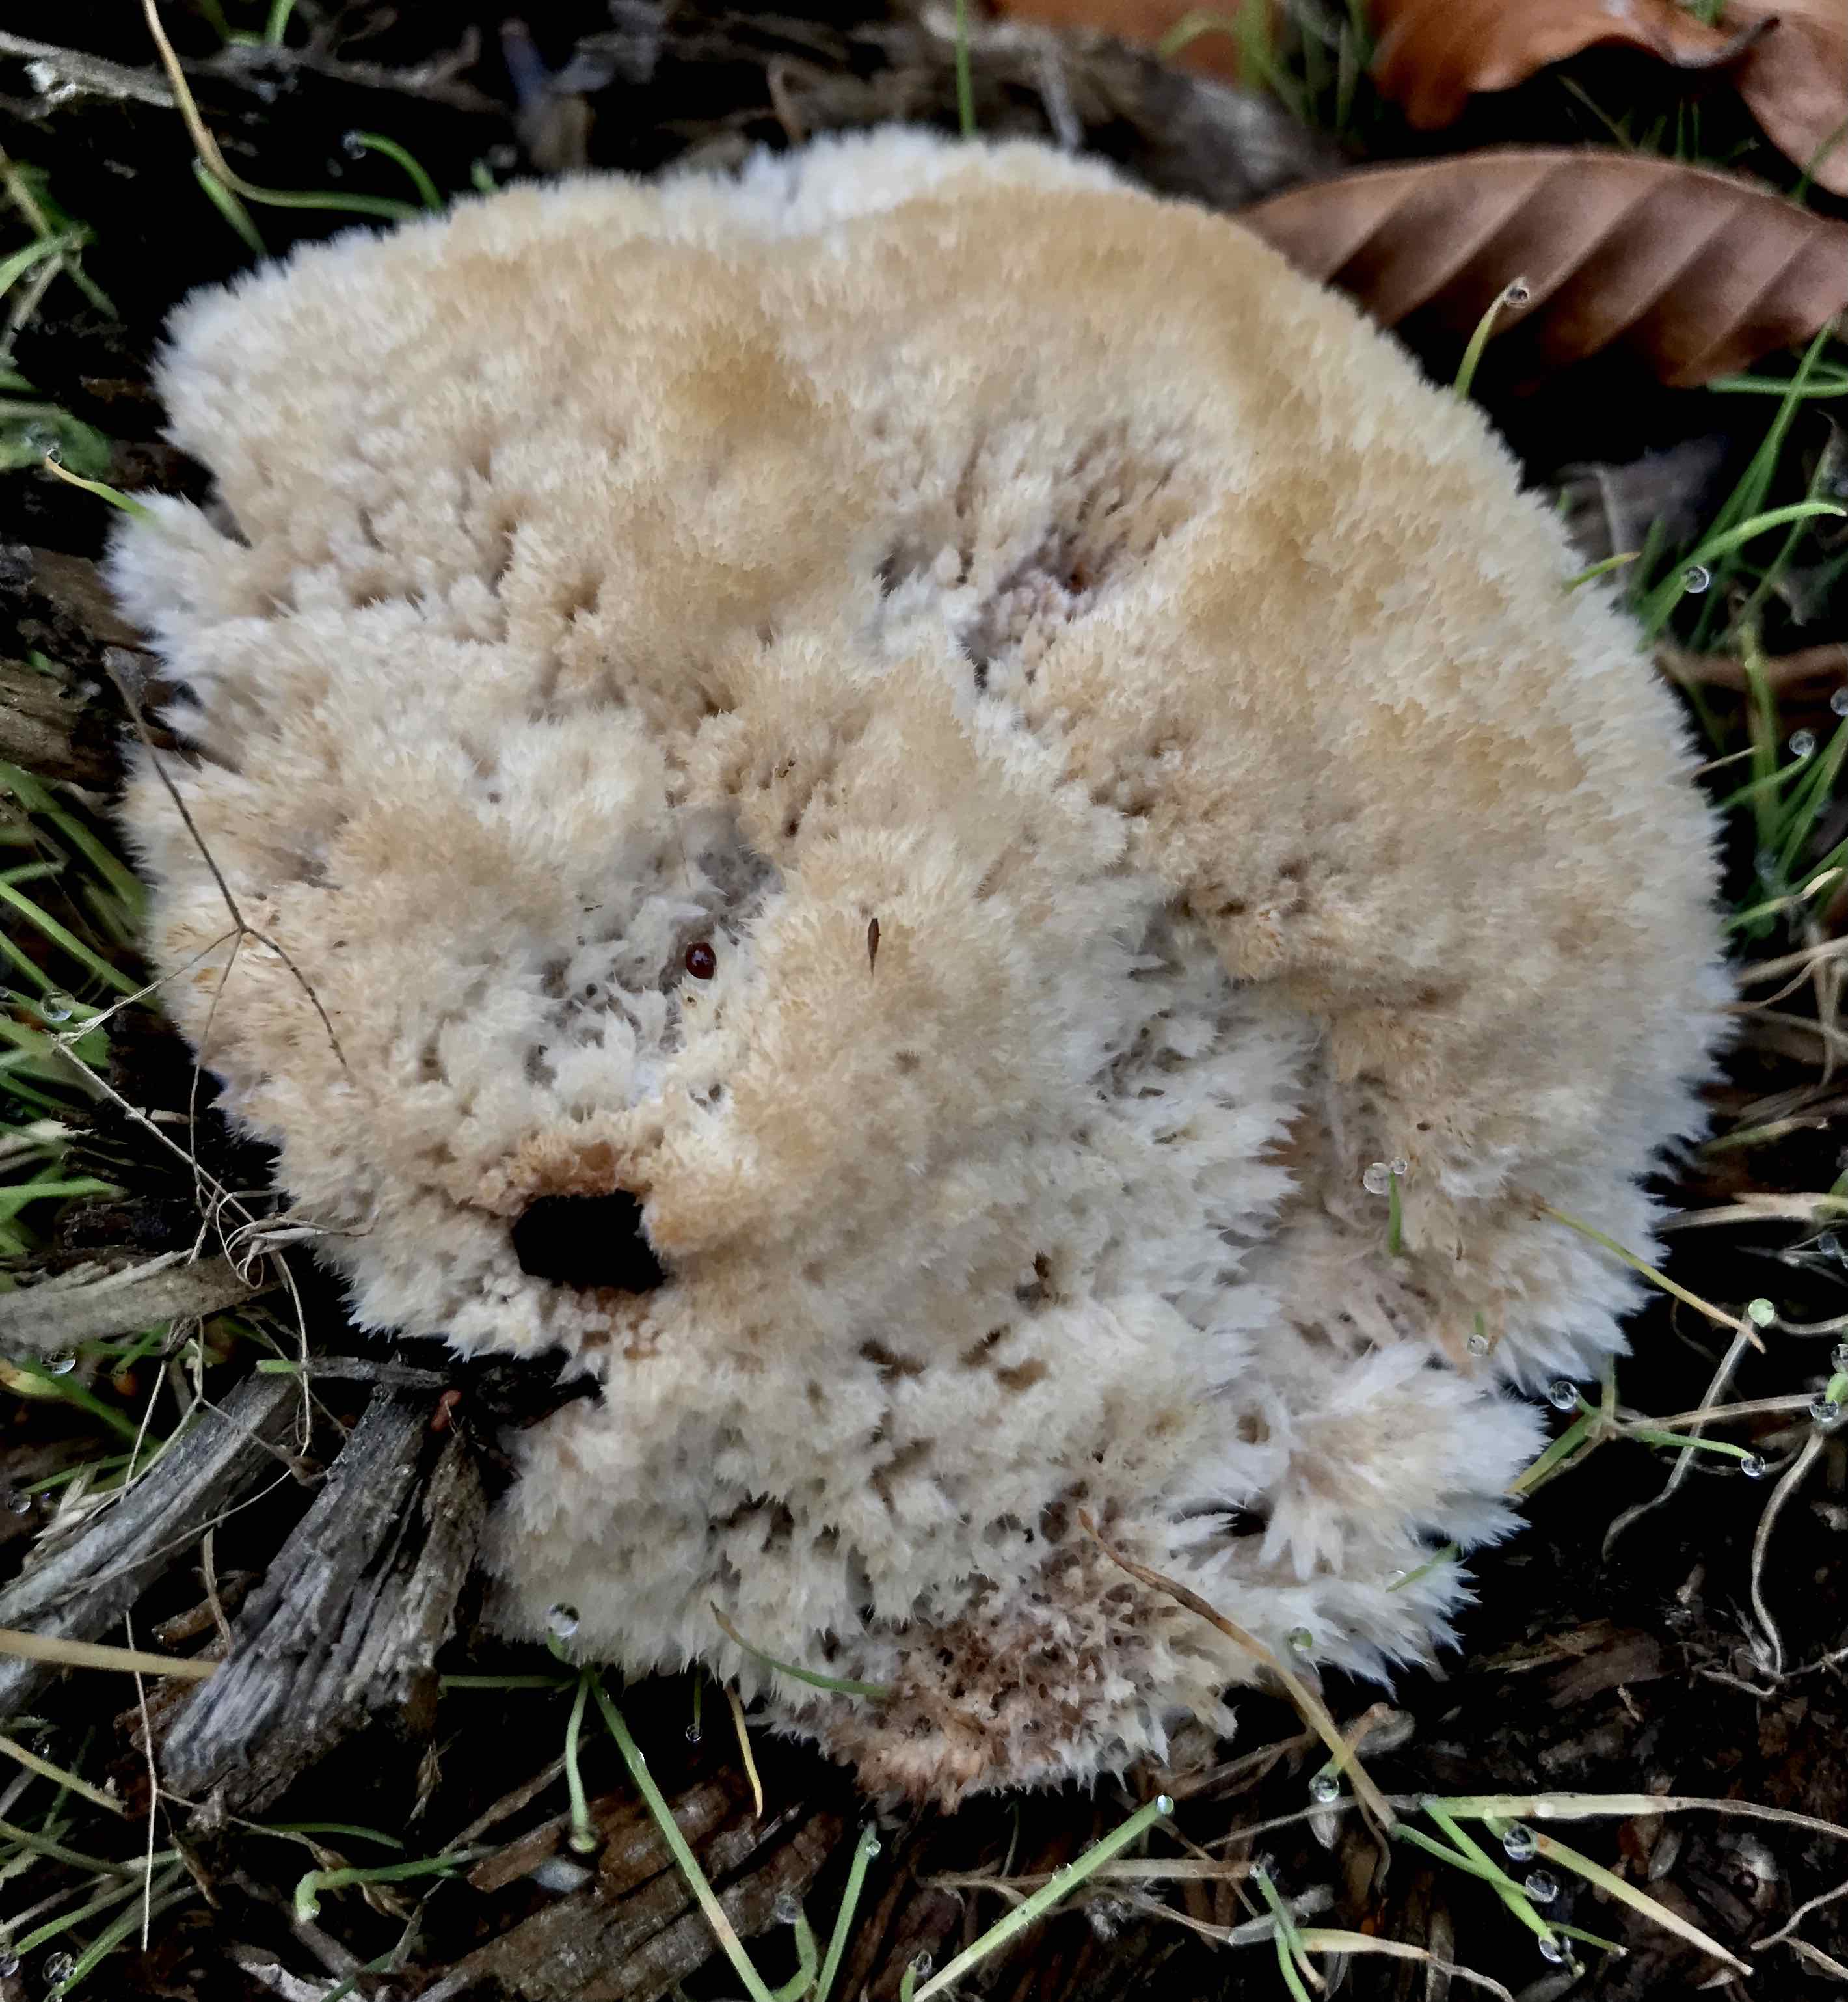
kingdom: Fungi
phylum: Basidiomycota
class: Agaricomycetes
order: Polyporales
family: Dacryobolaceae
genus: Postia
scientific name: Postia ptychogaster
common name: støvende kødporesvamp
